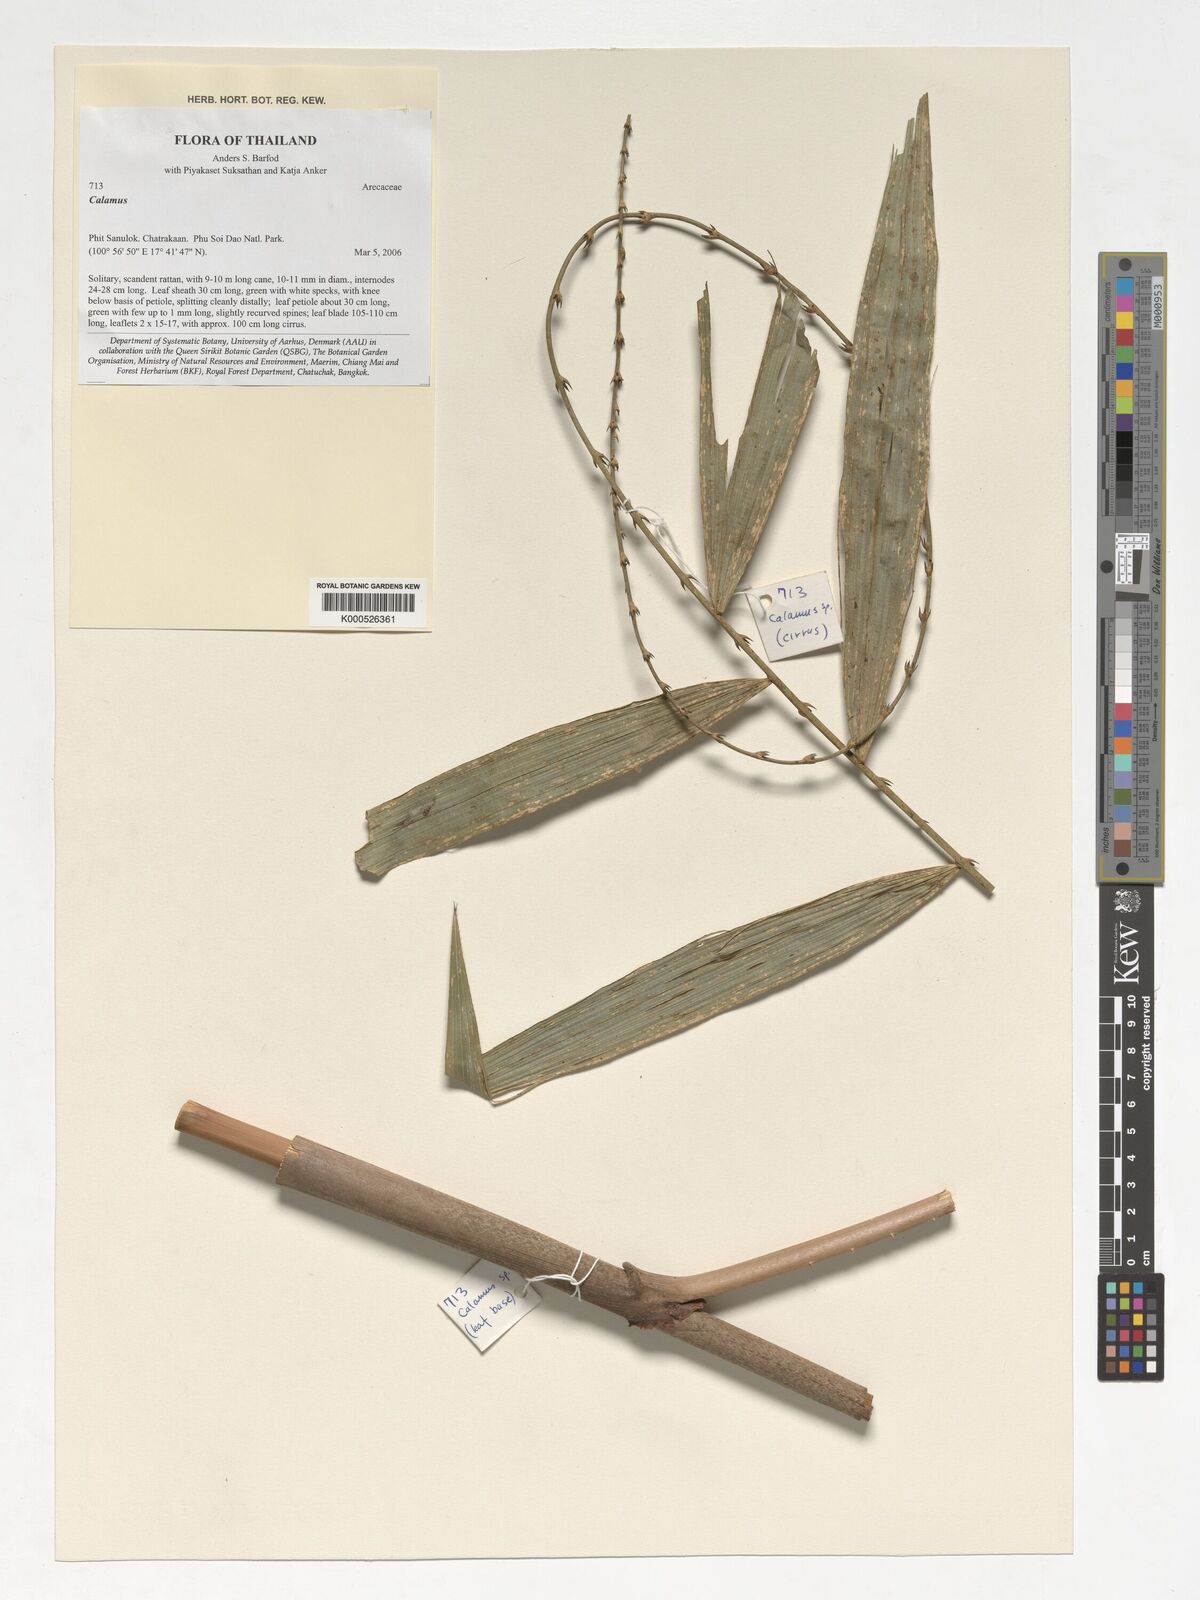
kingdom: Plantae
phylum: Tracheophyta
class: Liliopsida
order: Arecales
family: Arecaceae
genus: Calamus
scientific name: Calamus
